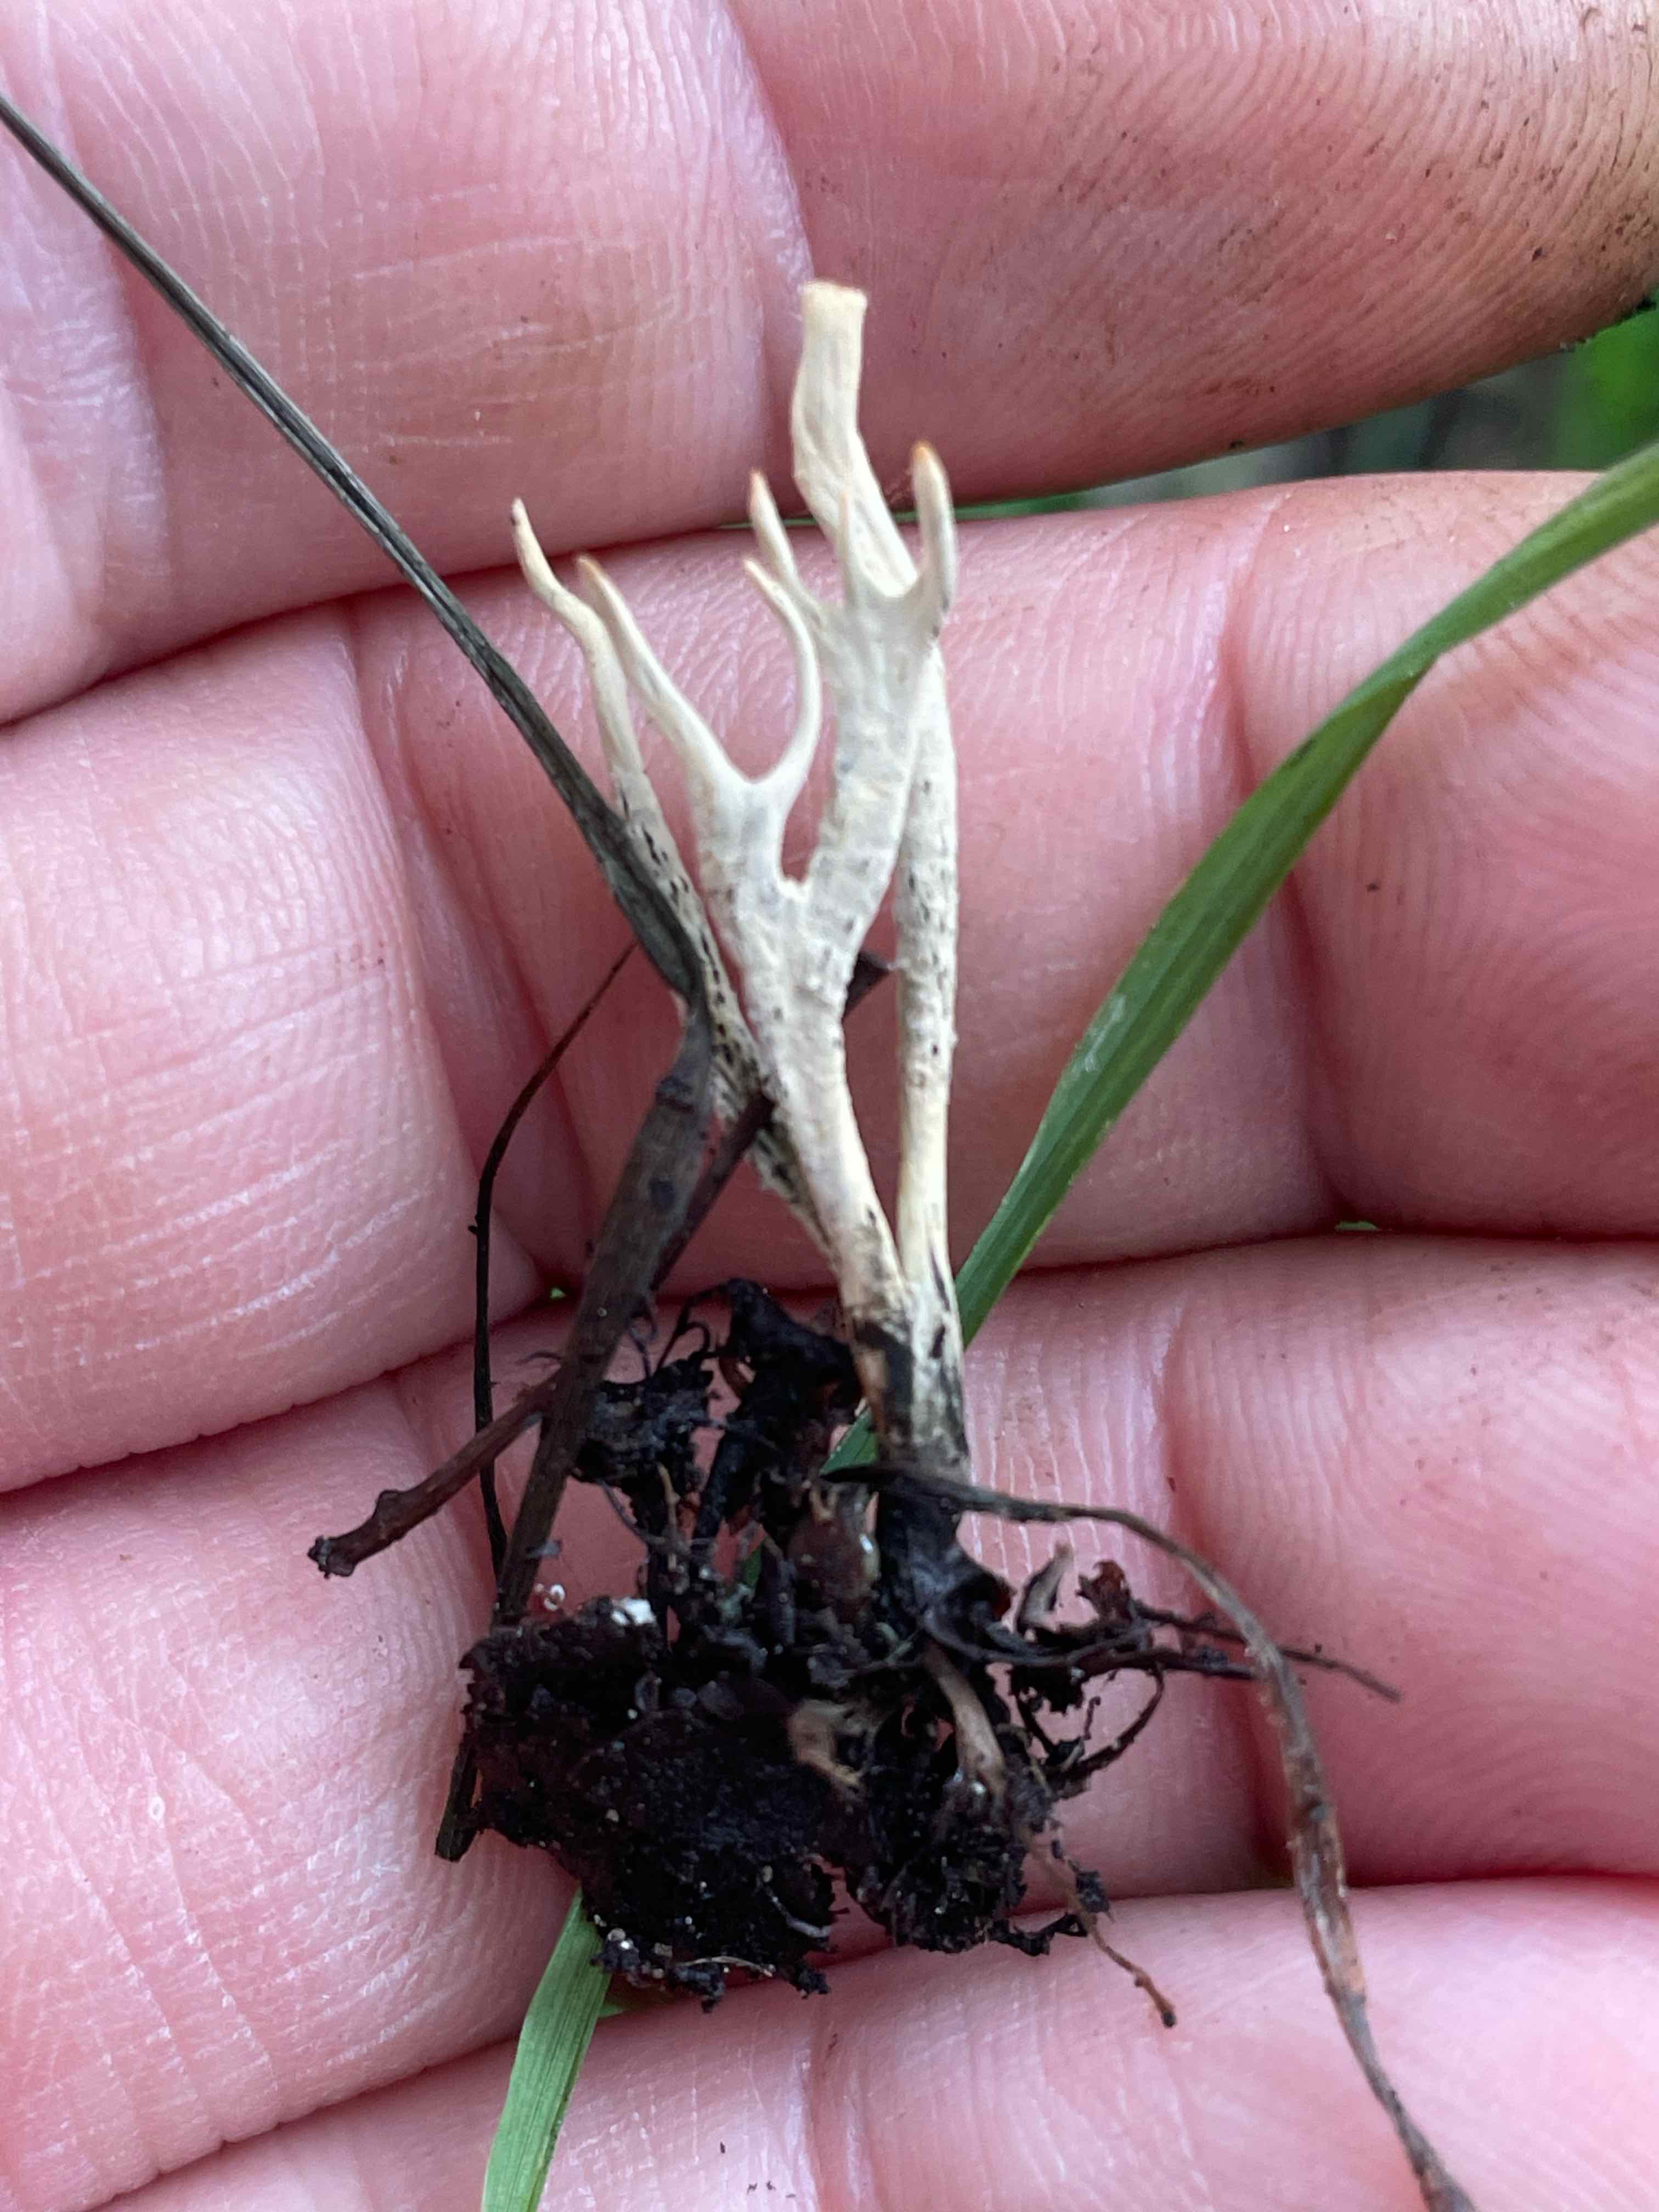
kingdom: Fungi
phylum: Ascomycota
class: Sordariomycetes
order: Xylariales
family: Xylariaceae
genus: Xylaria
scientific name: Xylaria oxyacanthae
